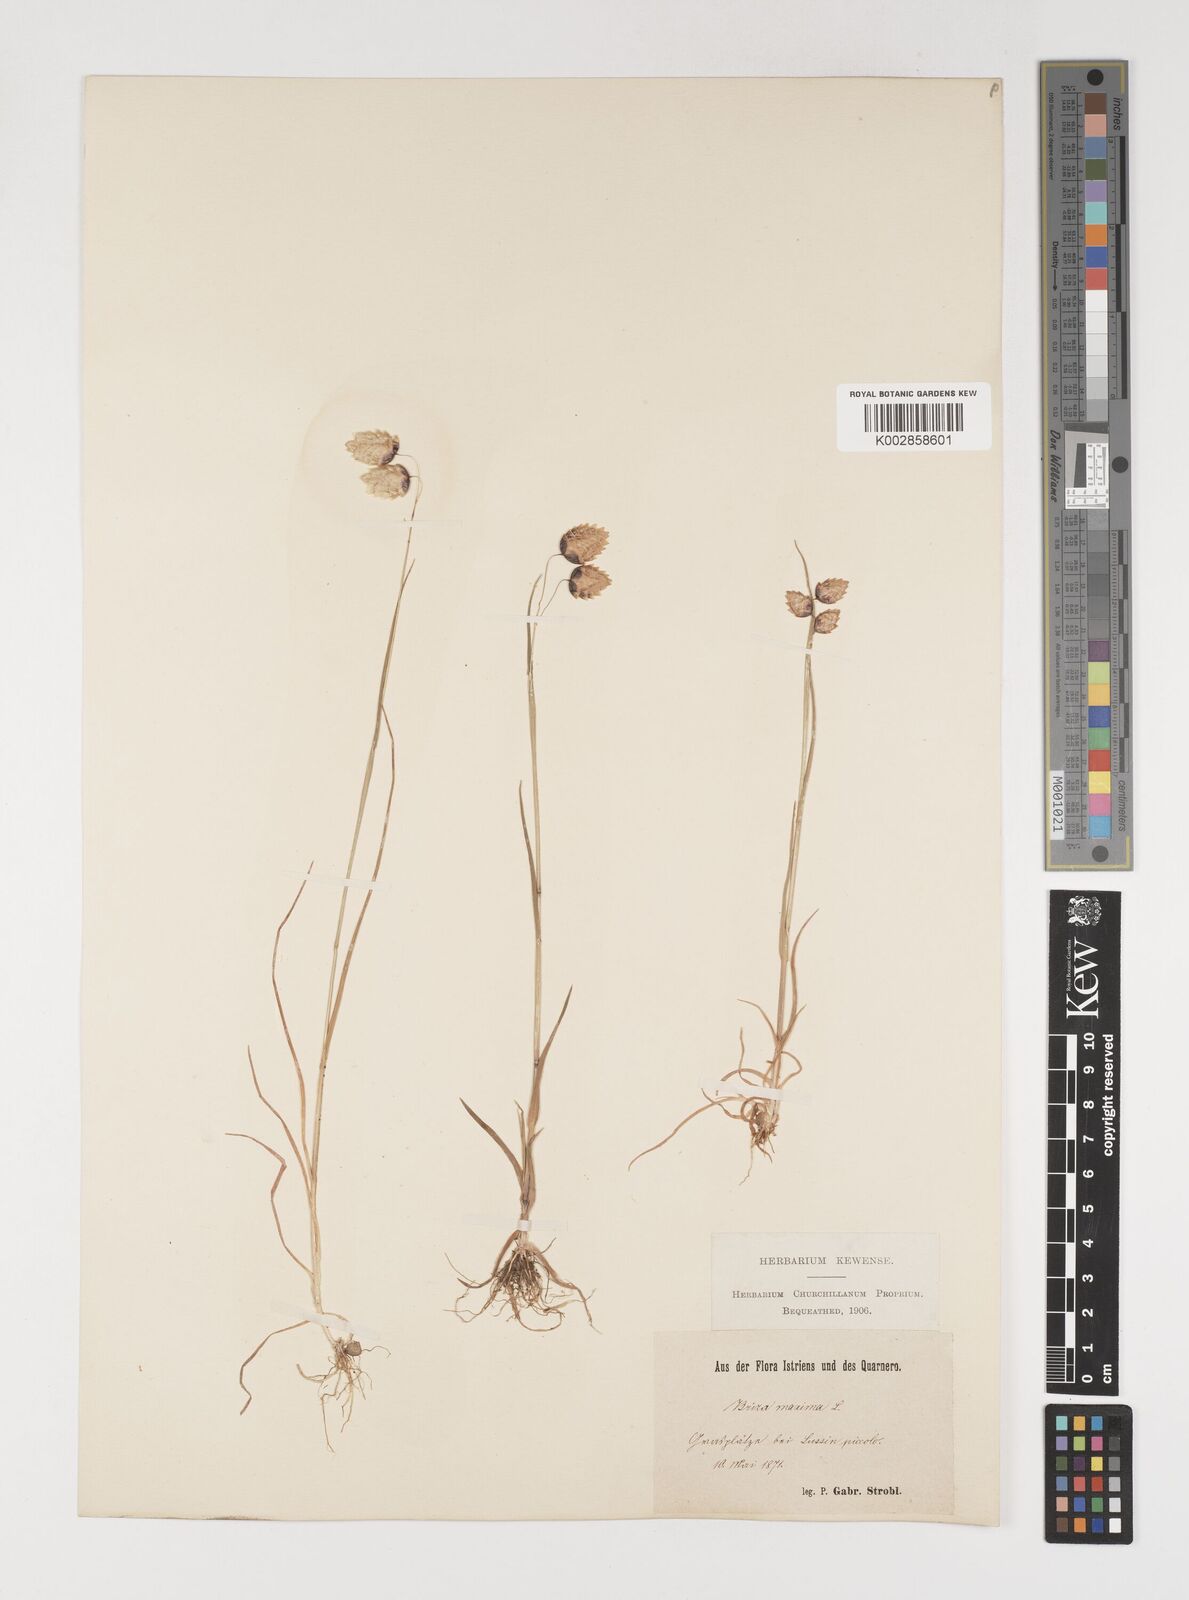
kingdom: Plantae
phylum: Tracheophyta
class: Liliopsida
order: Poales
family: Poaceae
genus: Briza
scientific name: Briza maxima
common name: Big quakinggrass
